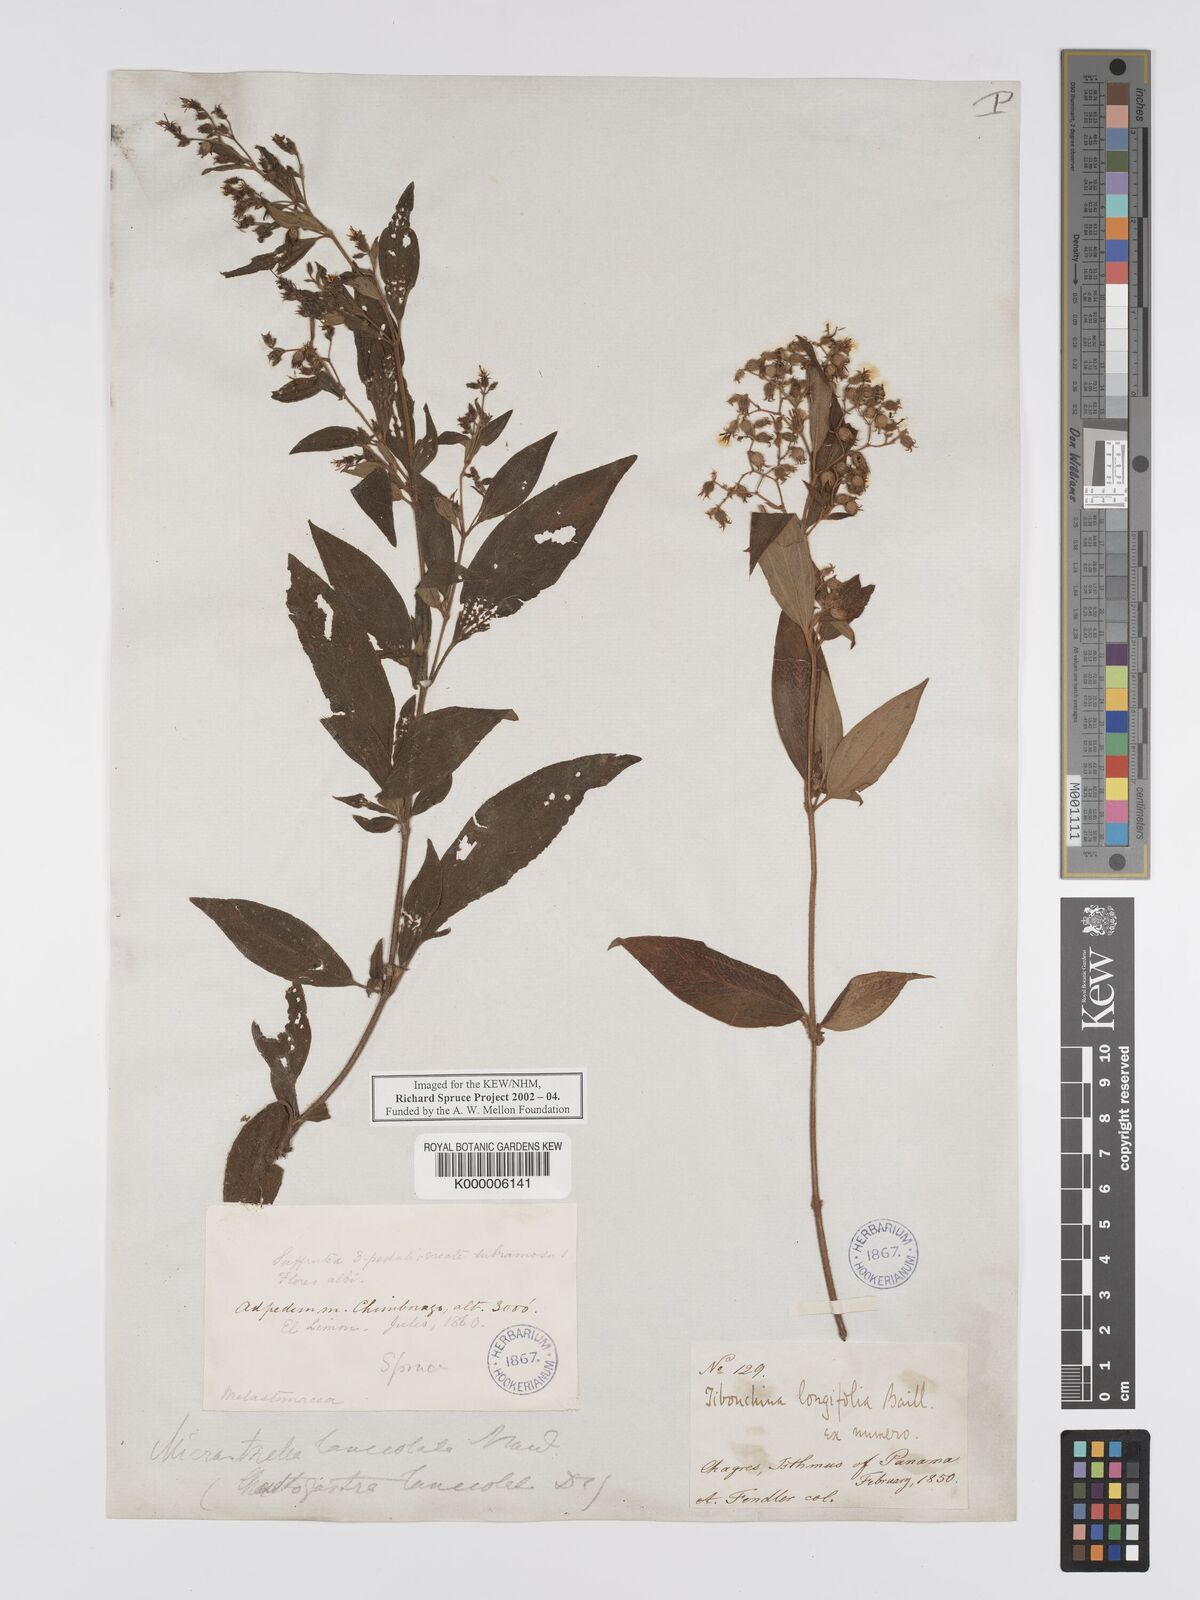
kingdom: Plantae
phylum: Tracheophyta
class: Magnoliopsida
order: Myrtales
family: Melastomataceae
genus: Chaetogastra
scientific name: Chaetogastra longifolia
